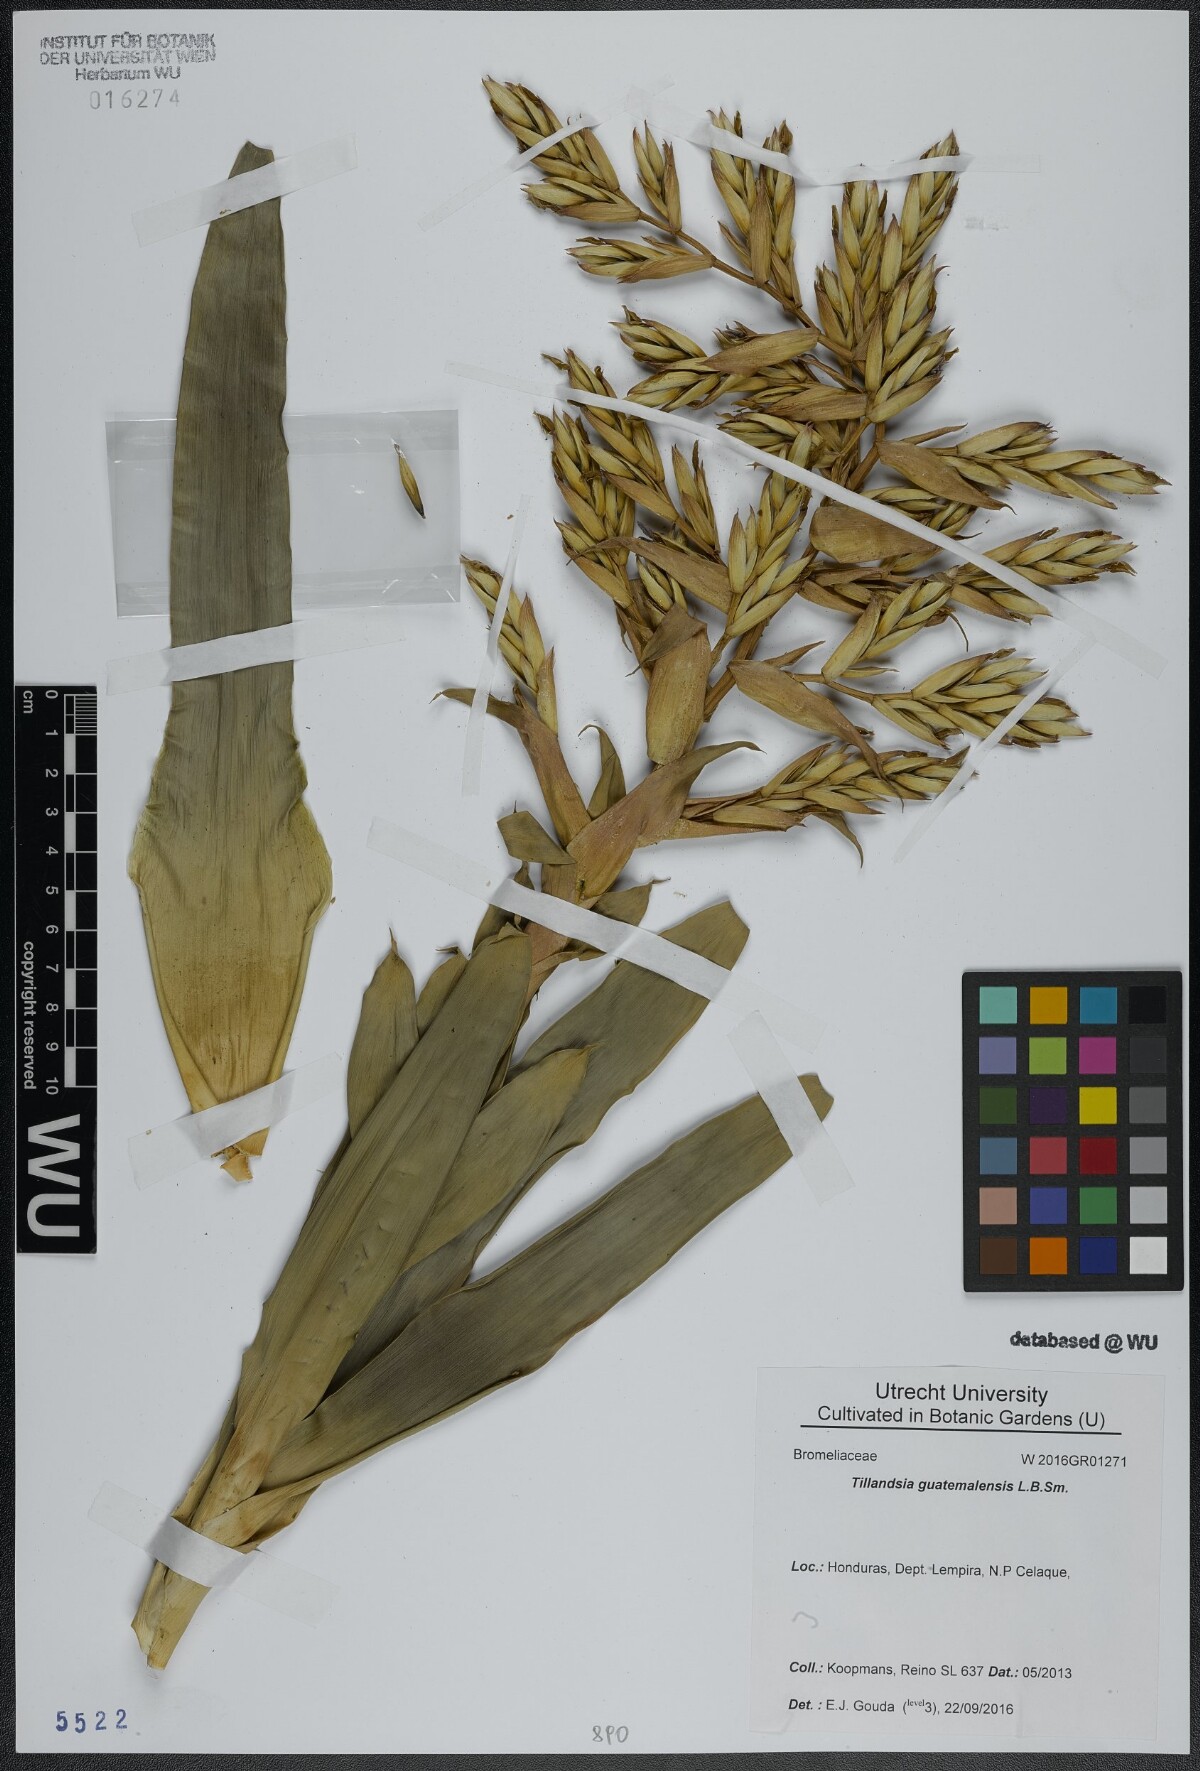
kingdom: Plantae
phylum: Tracheophyta
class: Liliopsida
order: Poales
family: Bromeliaceae
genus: Tillandsia
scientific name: Tillandsia guatemalensis
